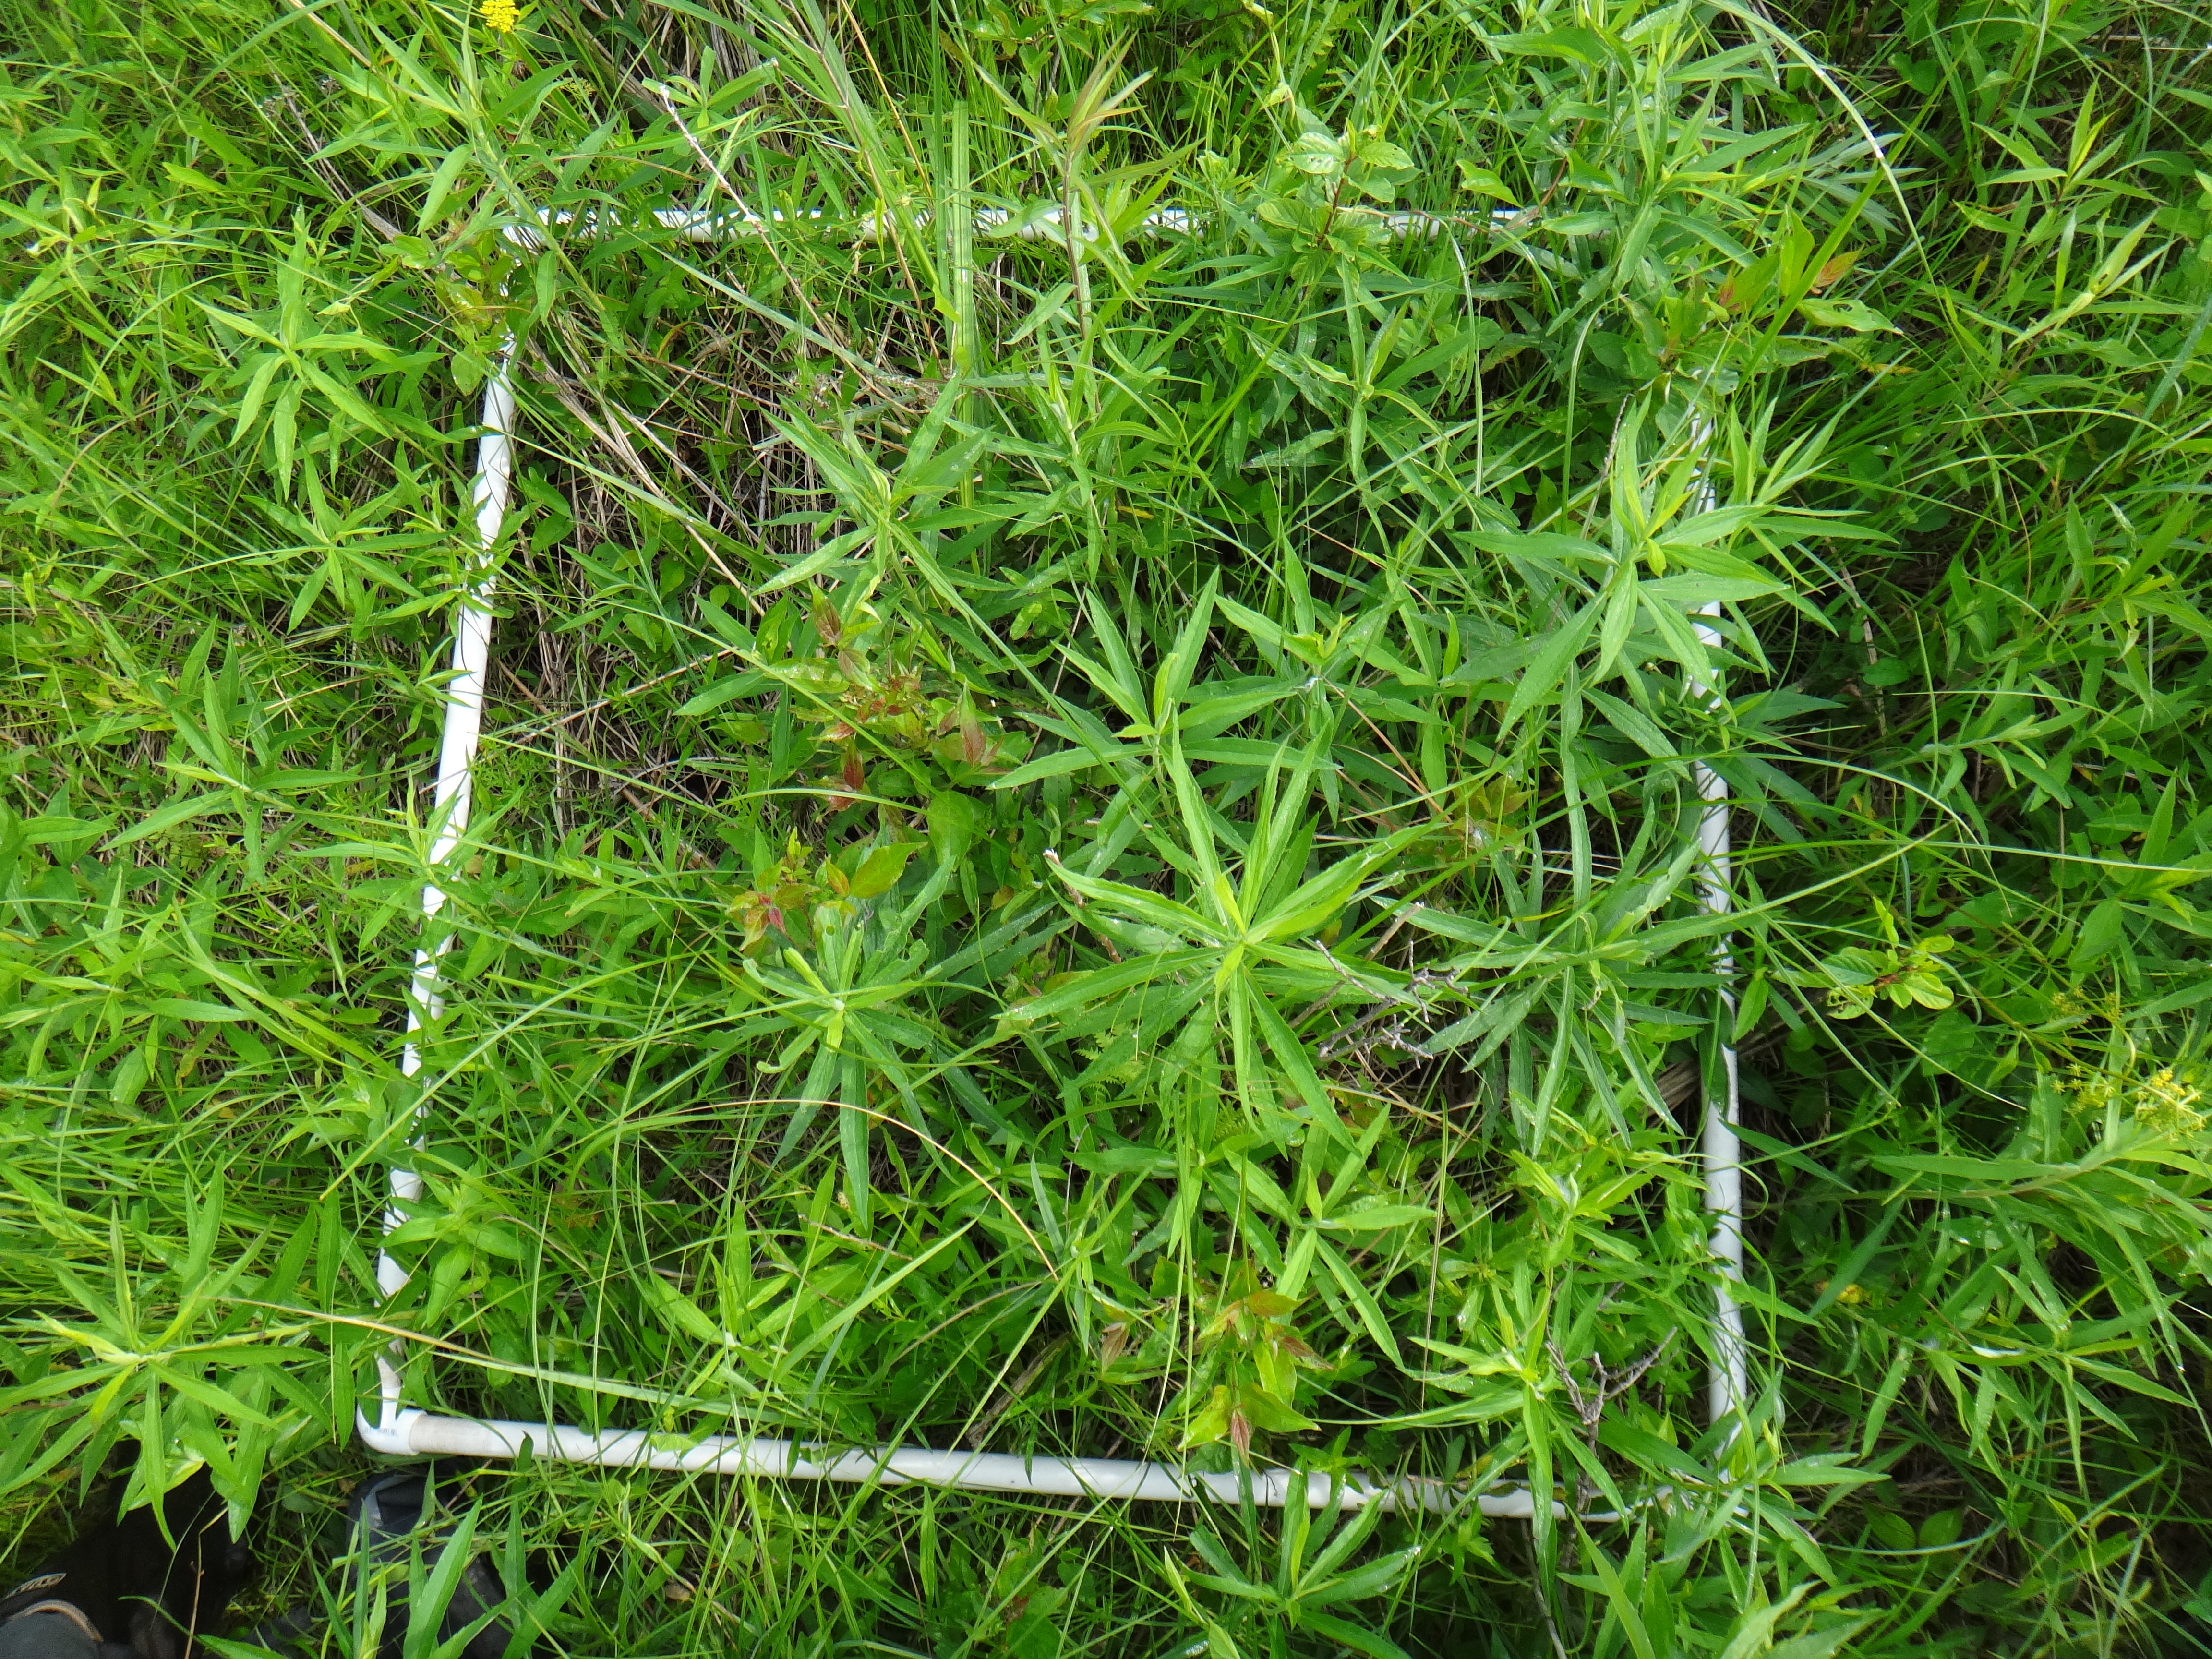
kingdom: Plantae
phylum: Tracheophyta
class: Magnoliopsida
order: Solanales
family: Convolvulaceae
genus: Calystegia
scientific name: Calystegia sepium
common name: Hedge bindweed
